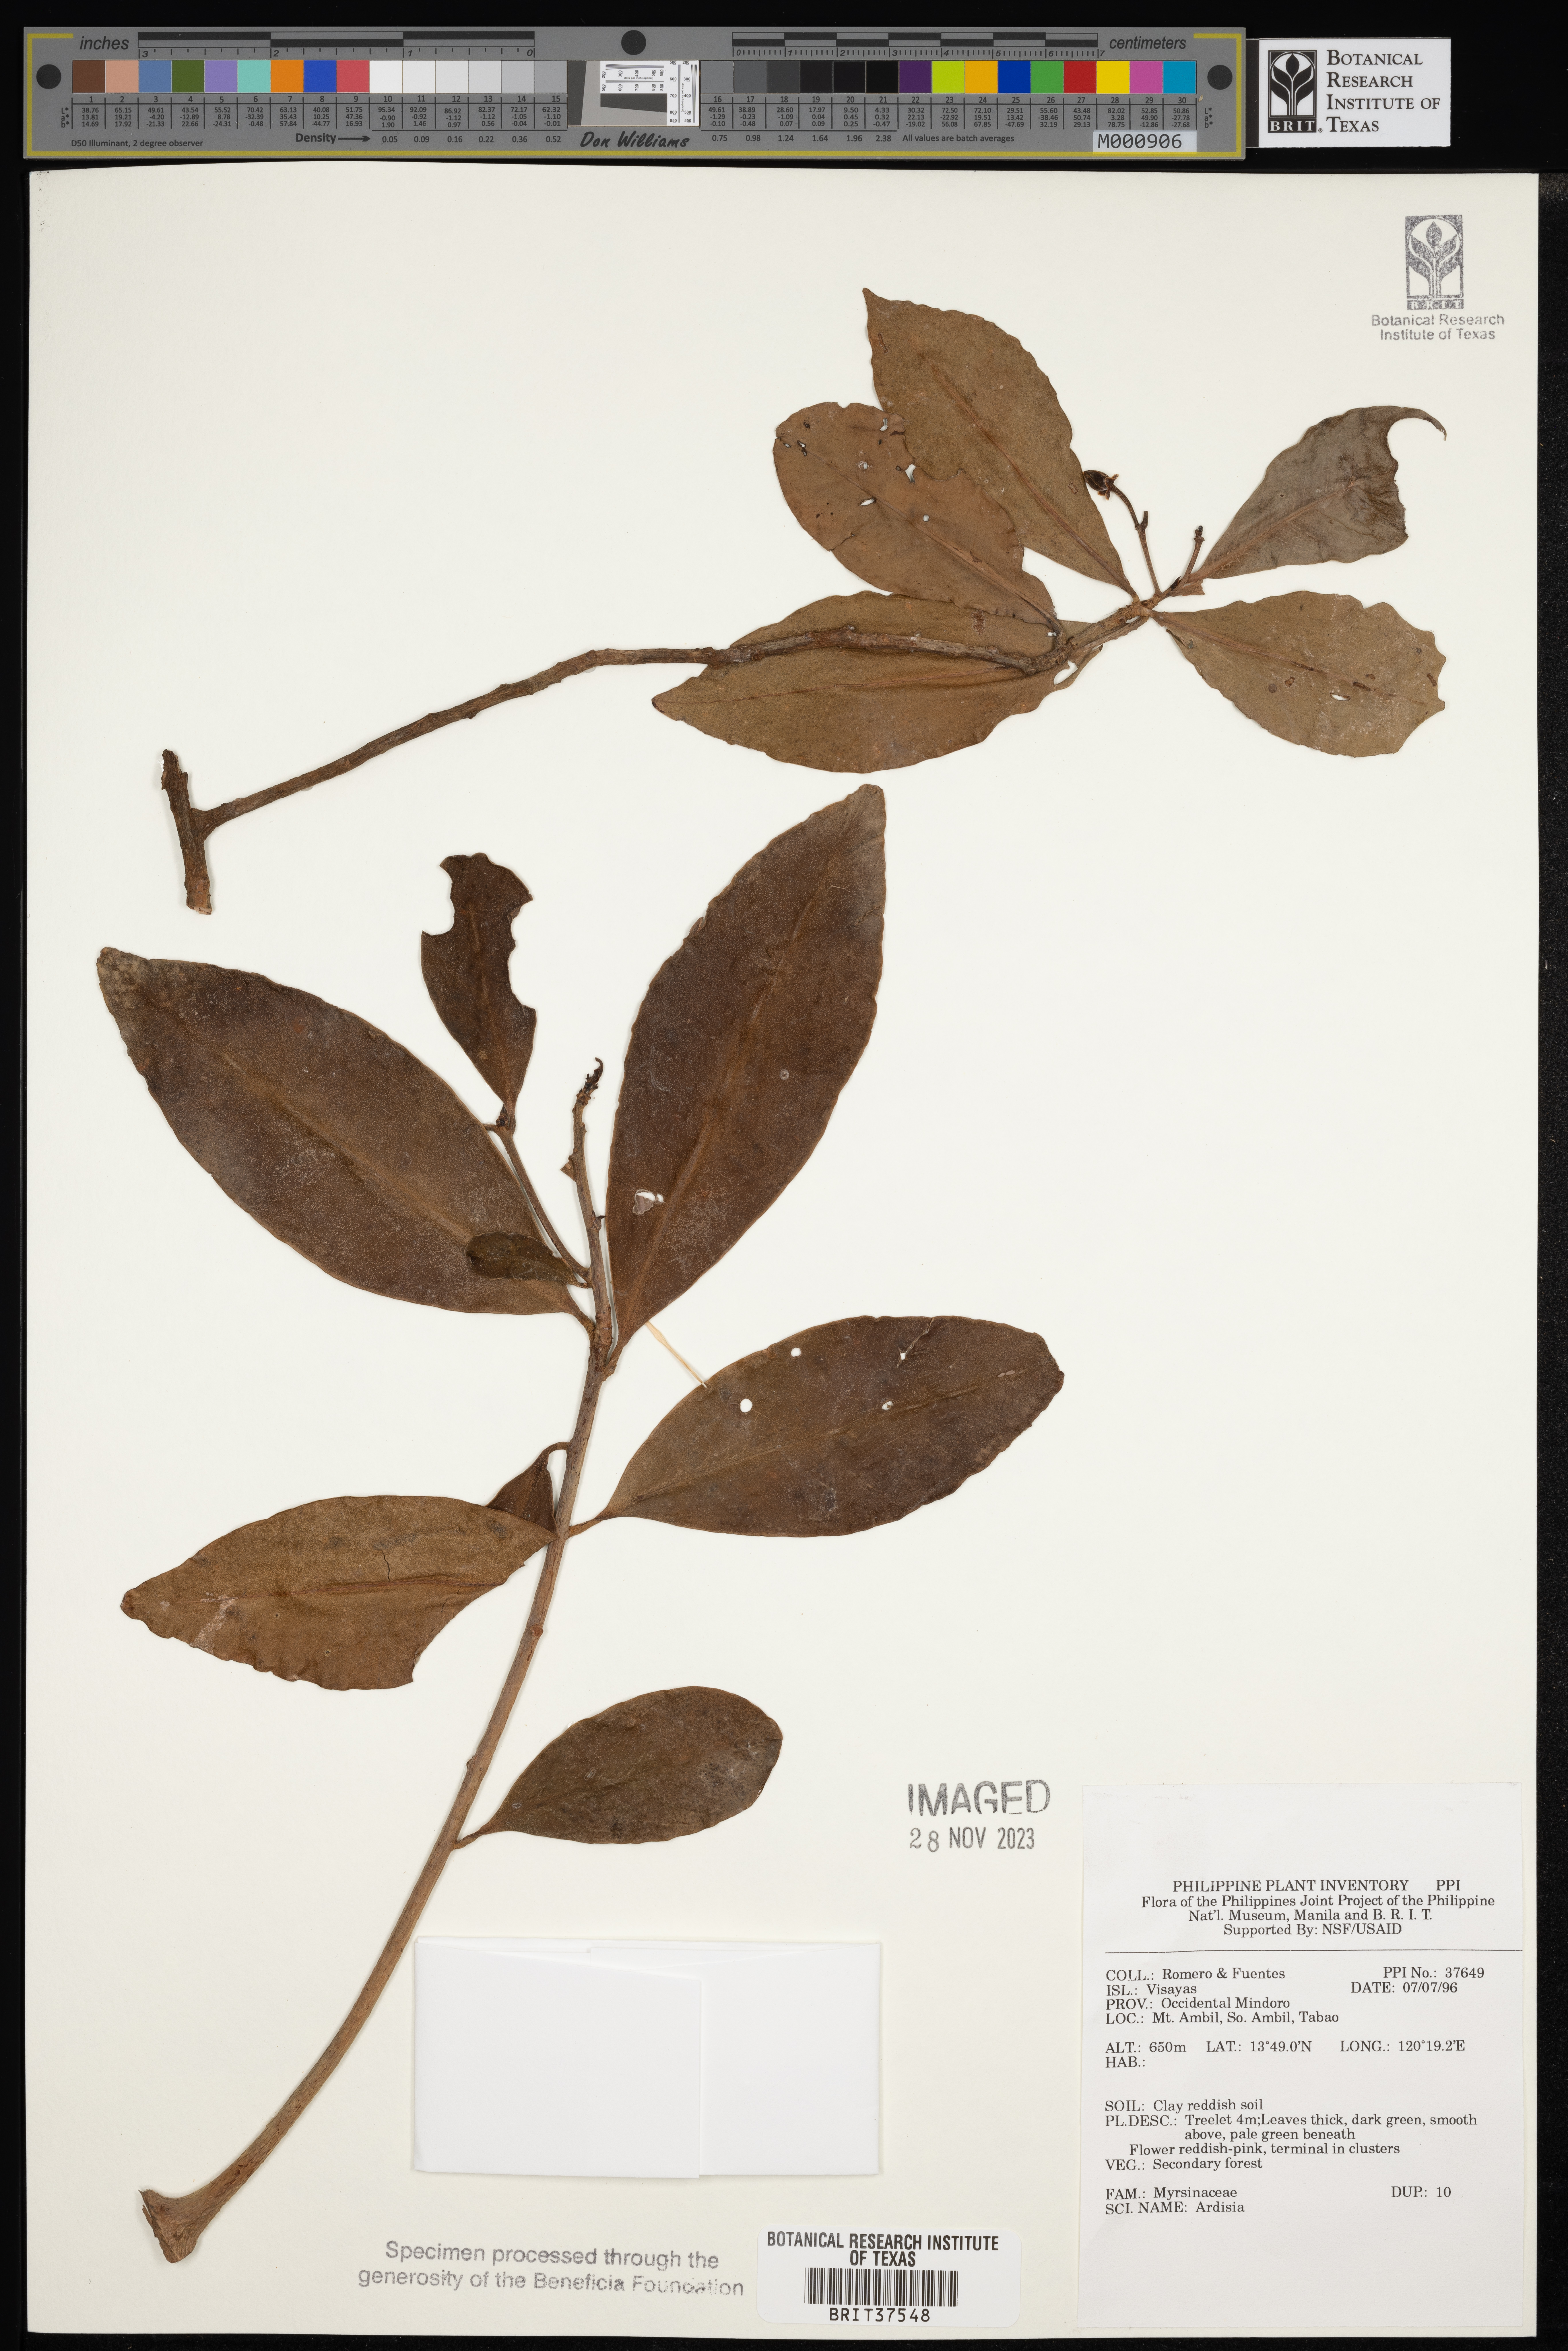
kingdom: Plantae
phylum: Tracheophyta
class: Magnoliopsida
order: Ericales
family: Primulaceae
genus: Ardisia
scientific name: Ardisia
